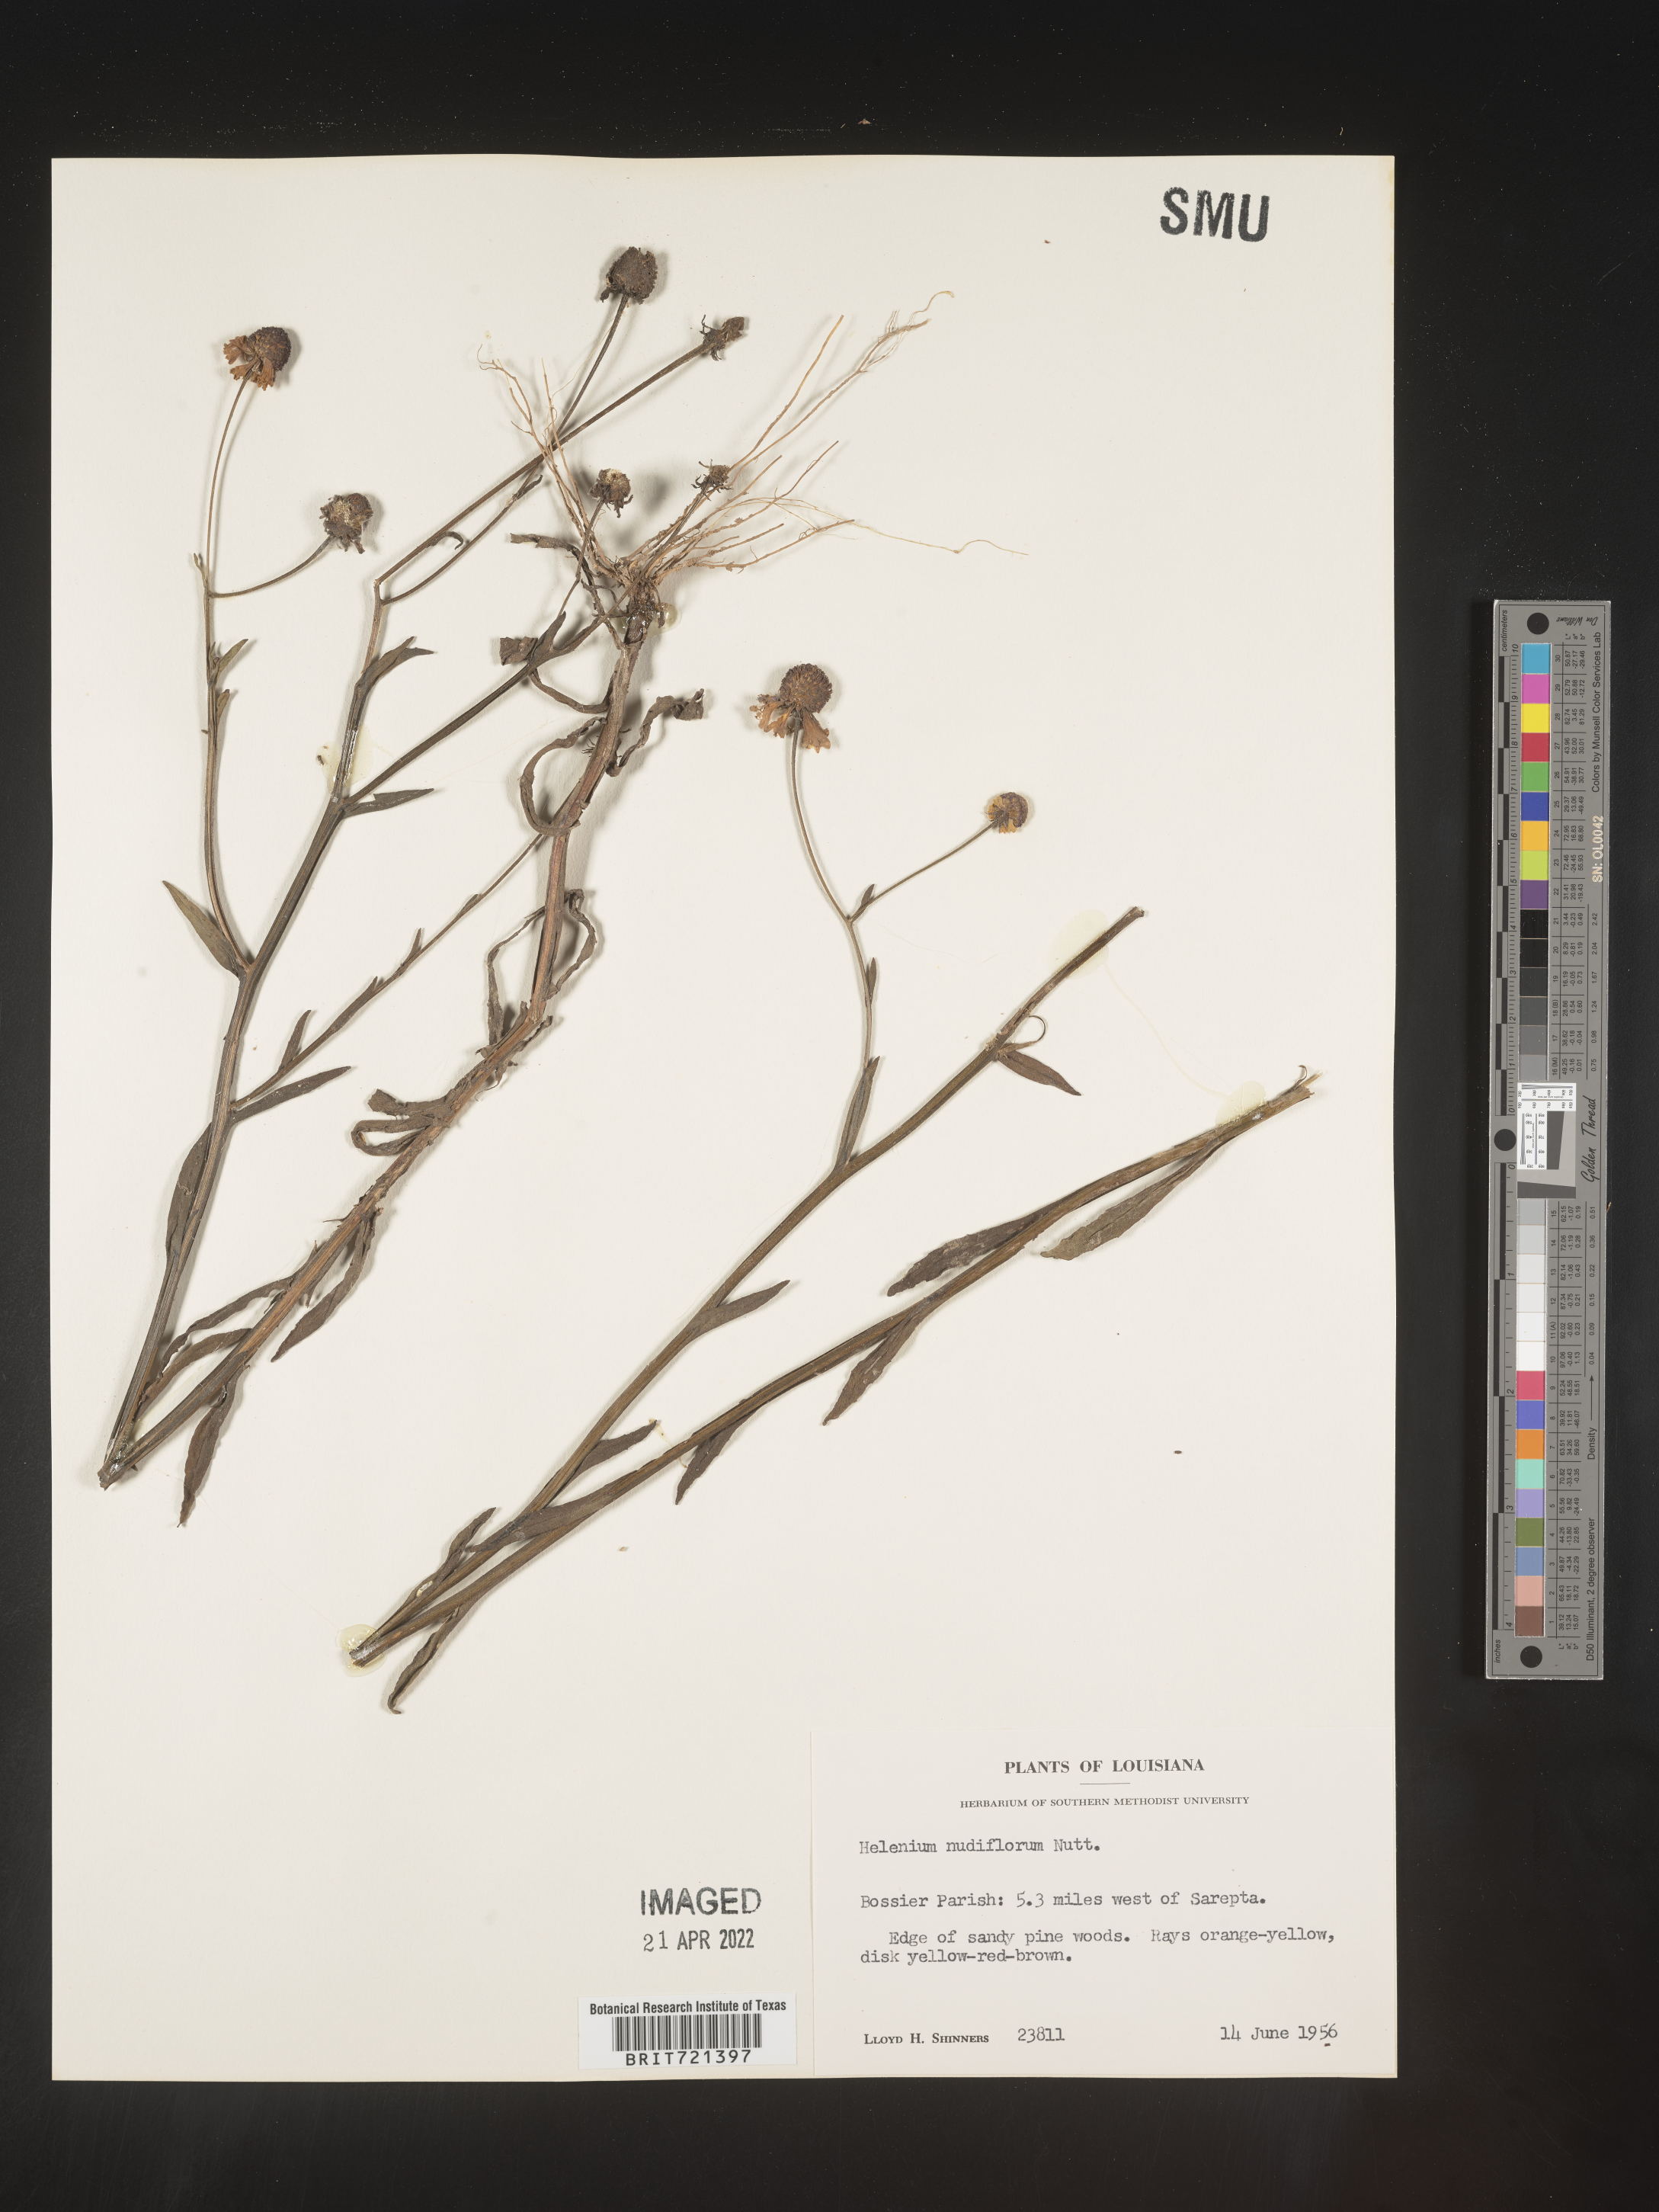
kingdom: Plantae
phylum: Tracheophyta
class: Magnoliopsida
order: Asterales
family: Asteraceae
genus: Helenium
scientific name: Helenium flexuosum
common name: Naked-flowered sneezeweed
